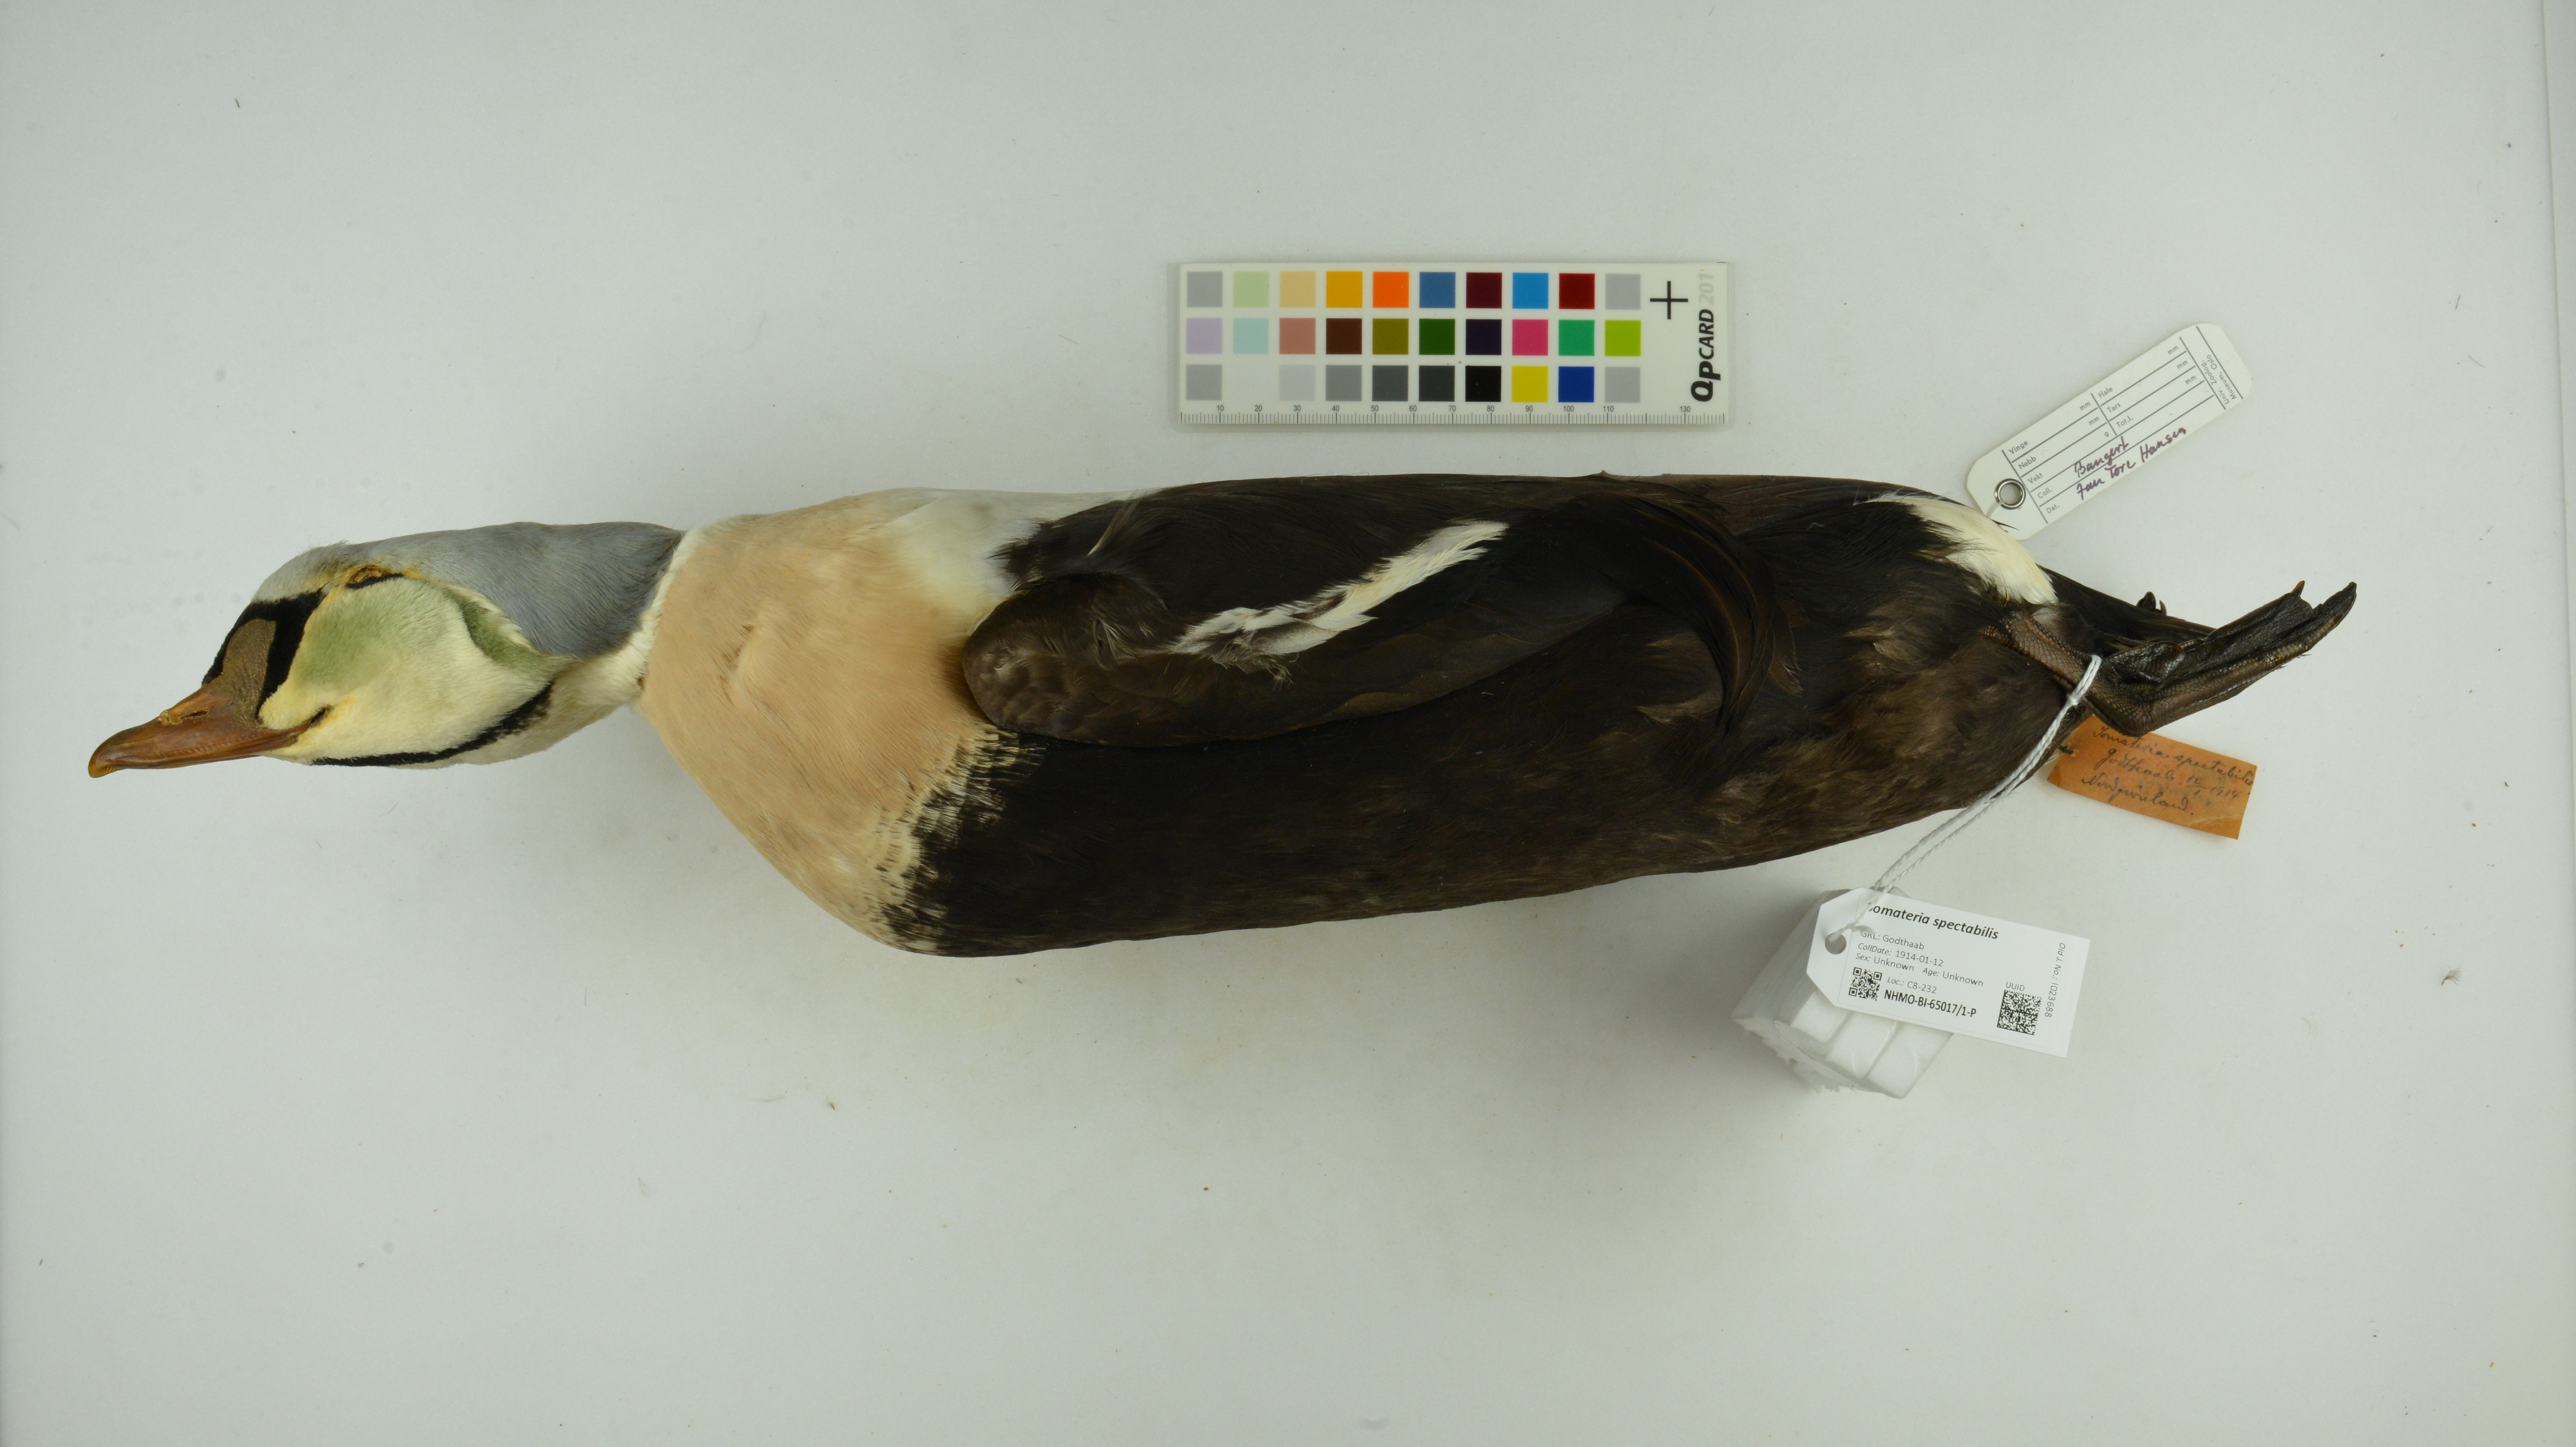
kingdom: Animalia
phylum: Chordata
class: Aves
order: Anseriformes
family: Anatidae
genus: Somateria
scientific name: Somateria spectabilis
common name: King eider
